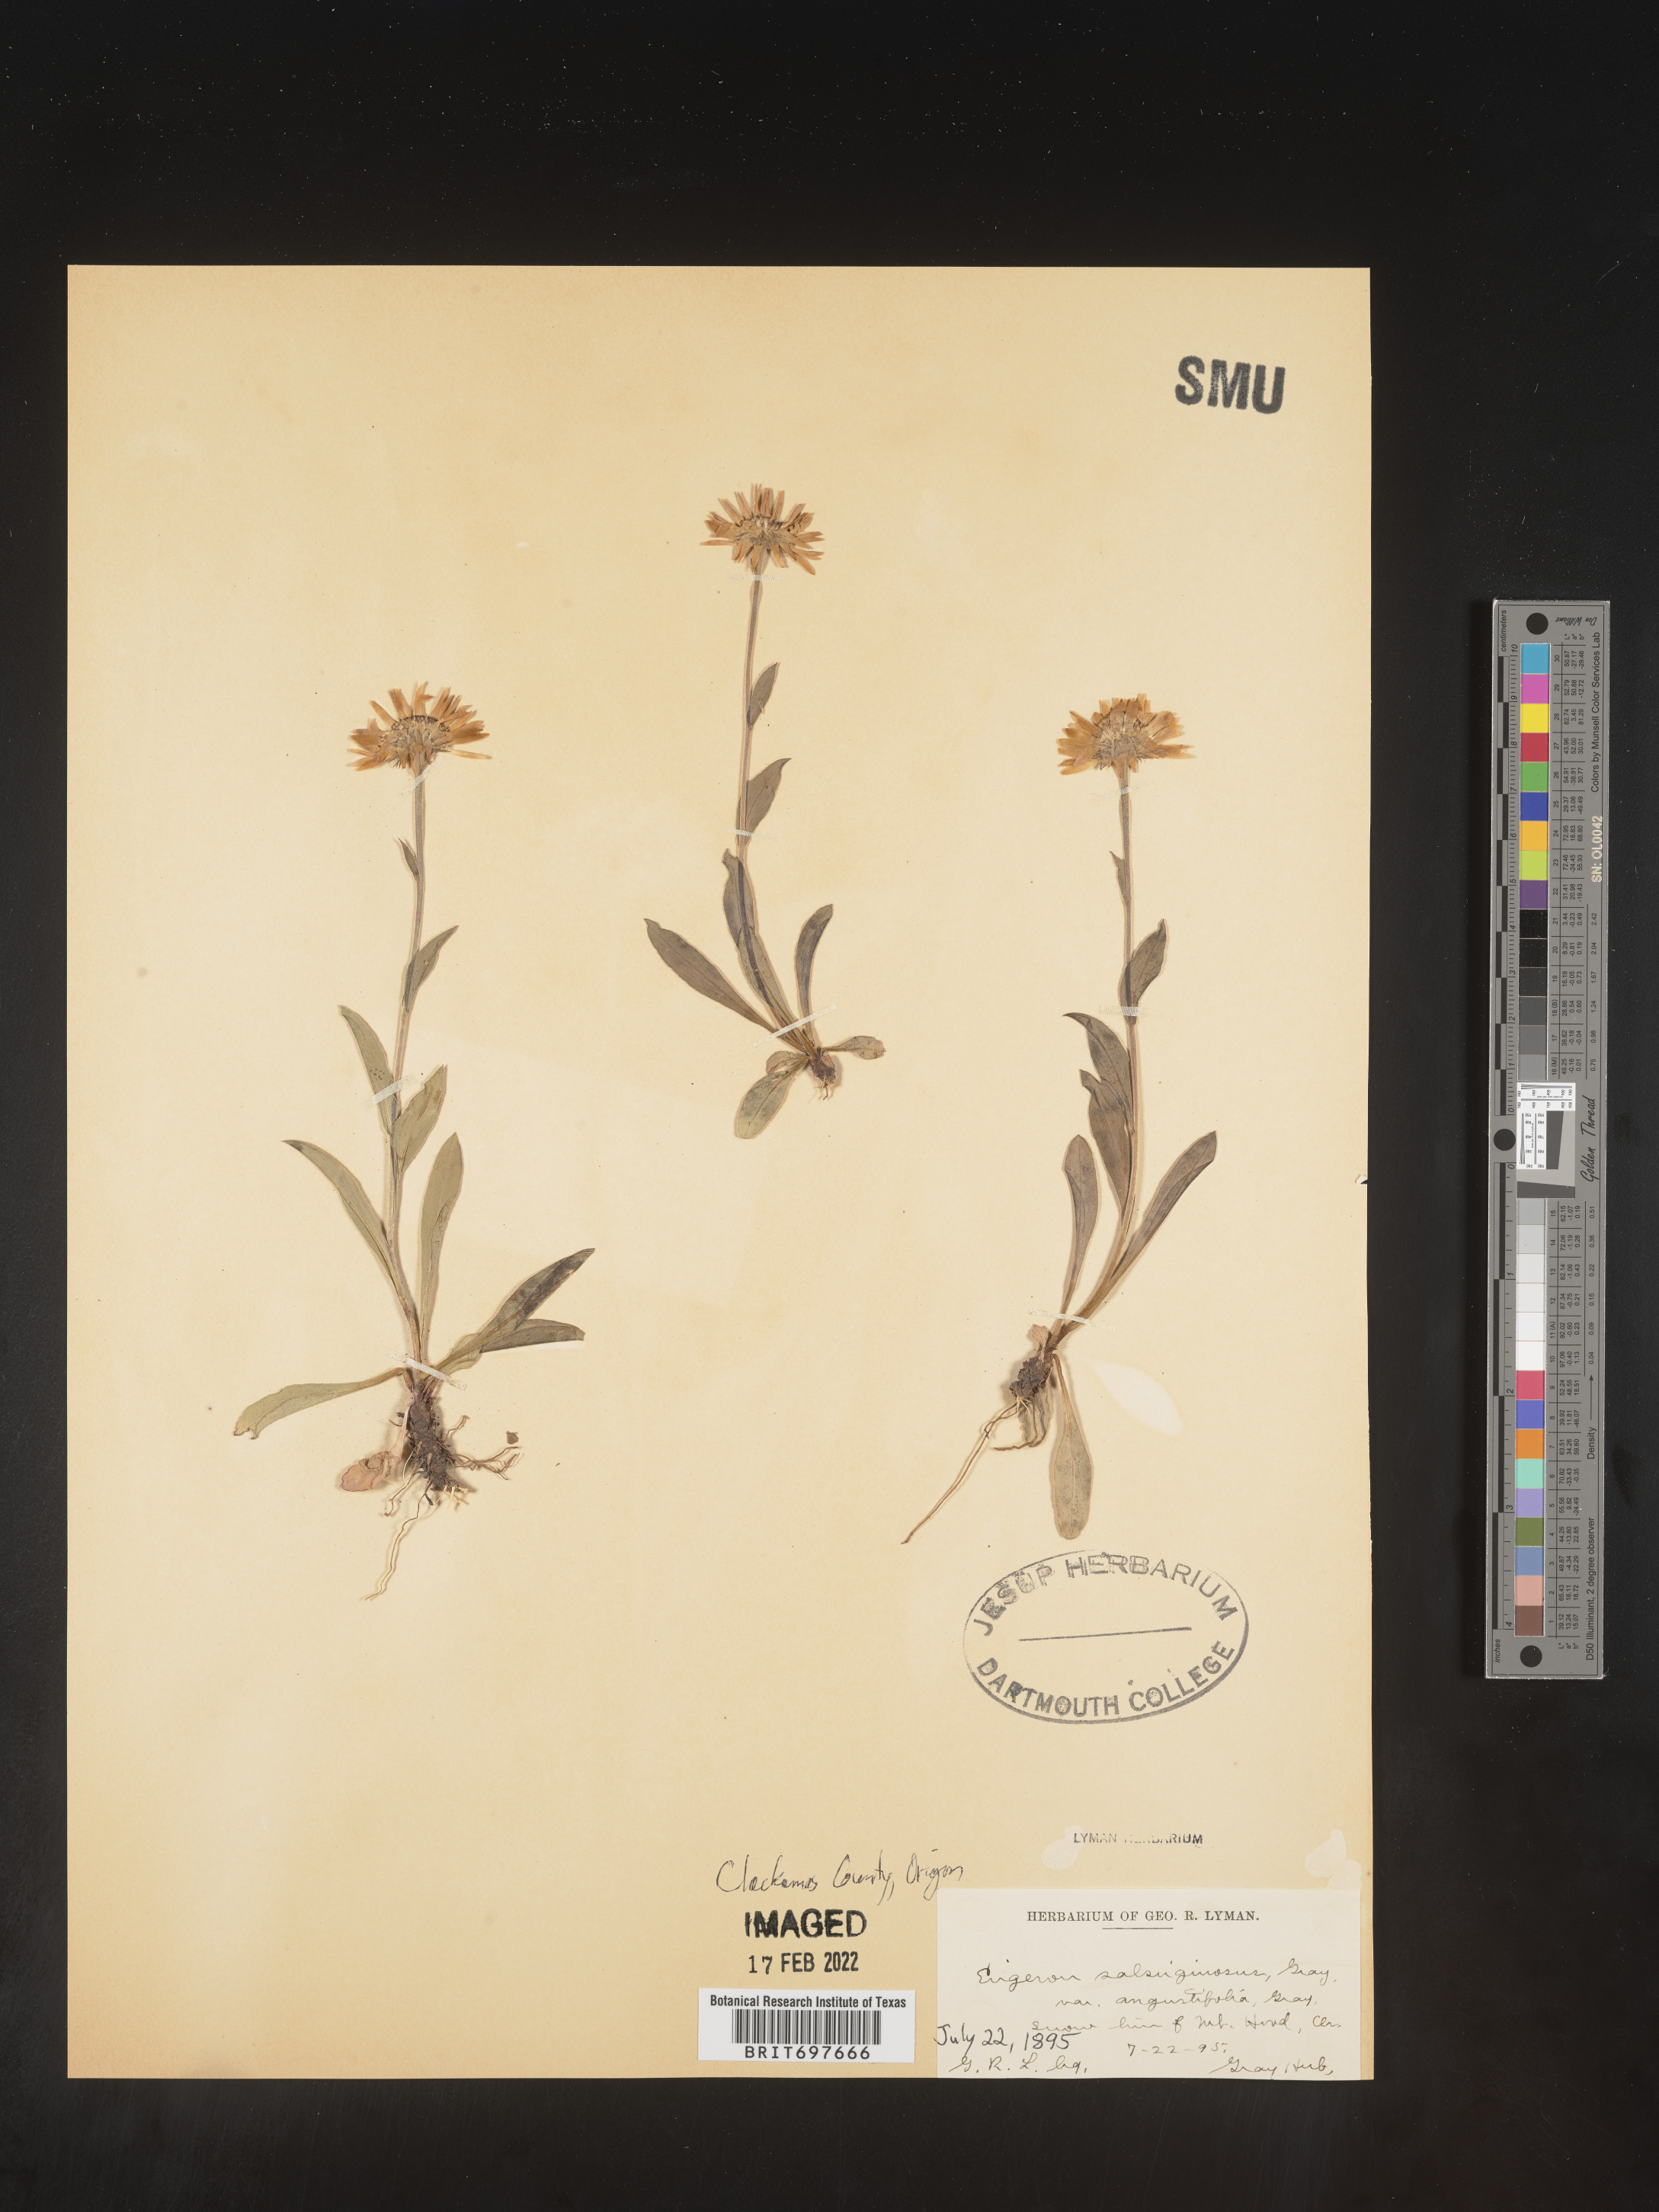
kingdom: Plantae
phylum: Tracheophyta
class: Magnoliopsida
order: Asterales
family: Asteraceae
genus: Erigeron
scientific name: Erigeron glacialis
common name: Subalpine fleabane
